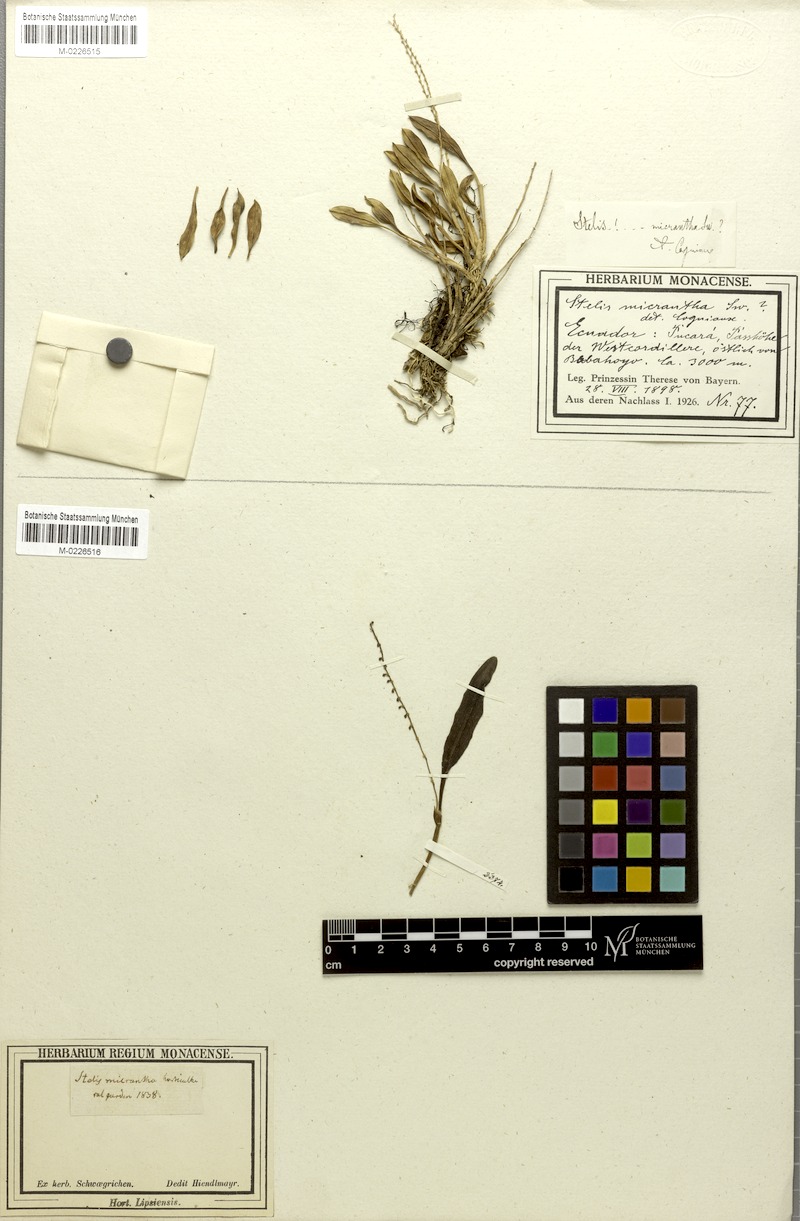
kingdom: Plantae
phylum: Tracheophyta
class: Liliopsida
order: Asparagales
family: Orchidaceae
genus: Stelis
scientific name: Stelis micrantha
